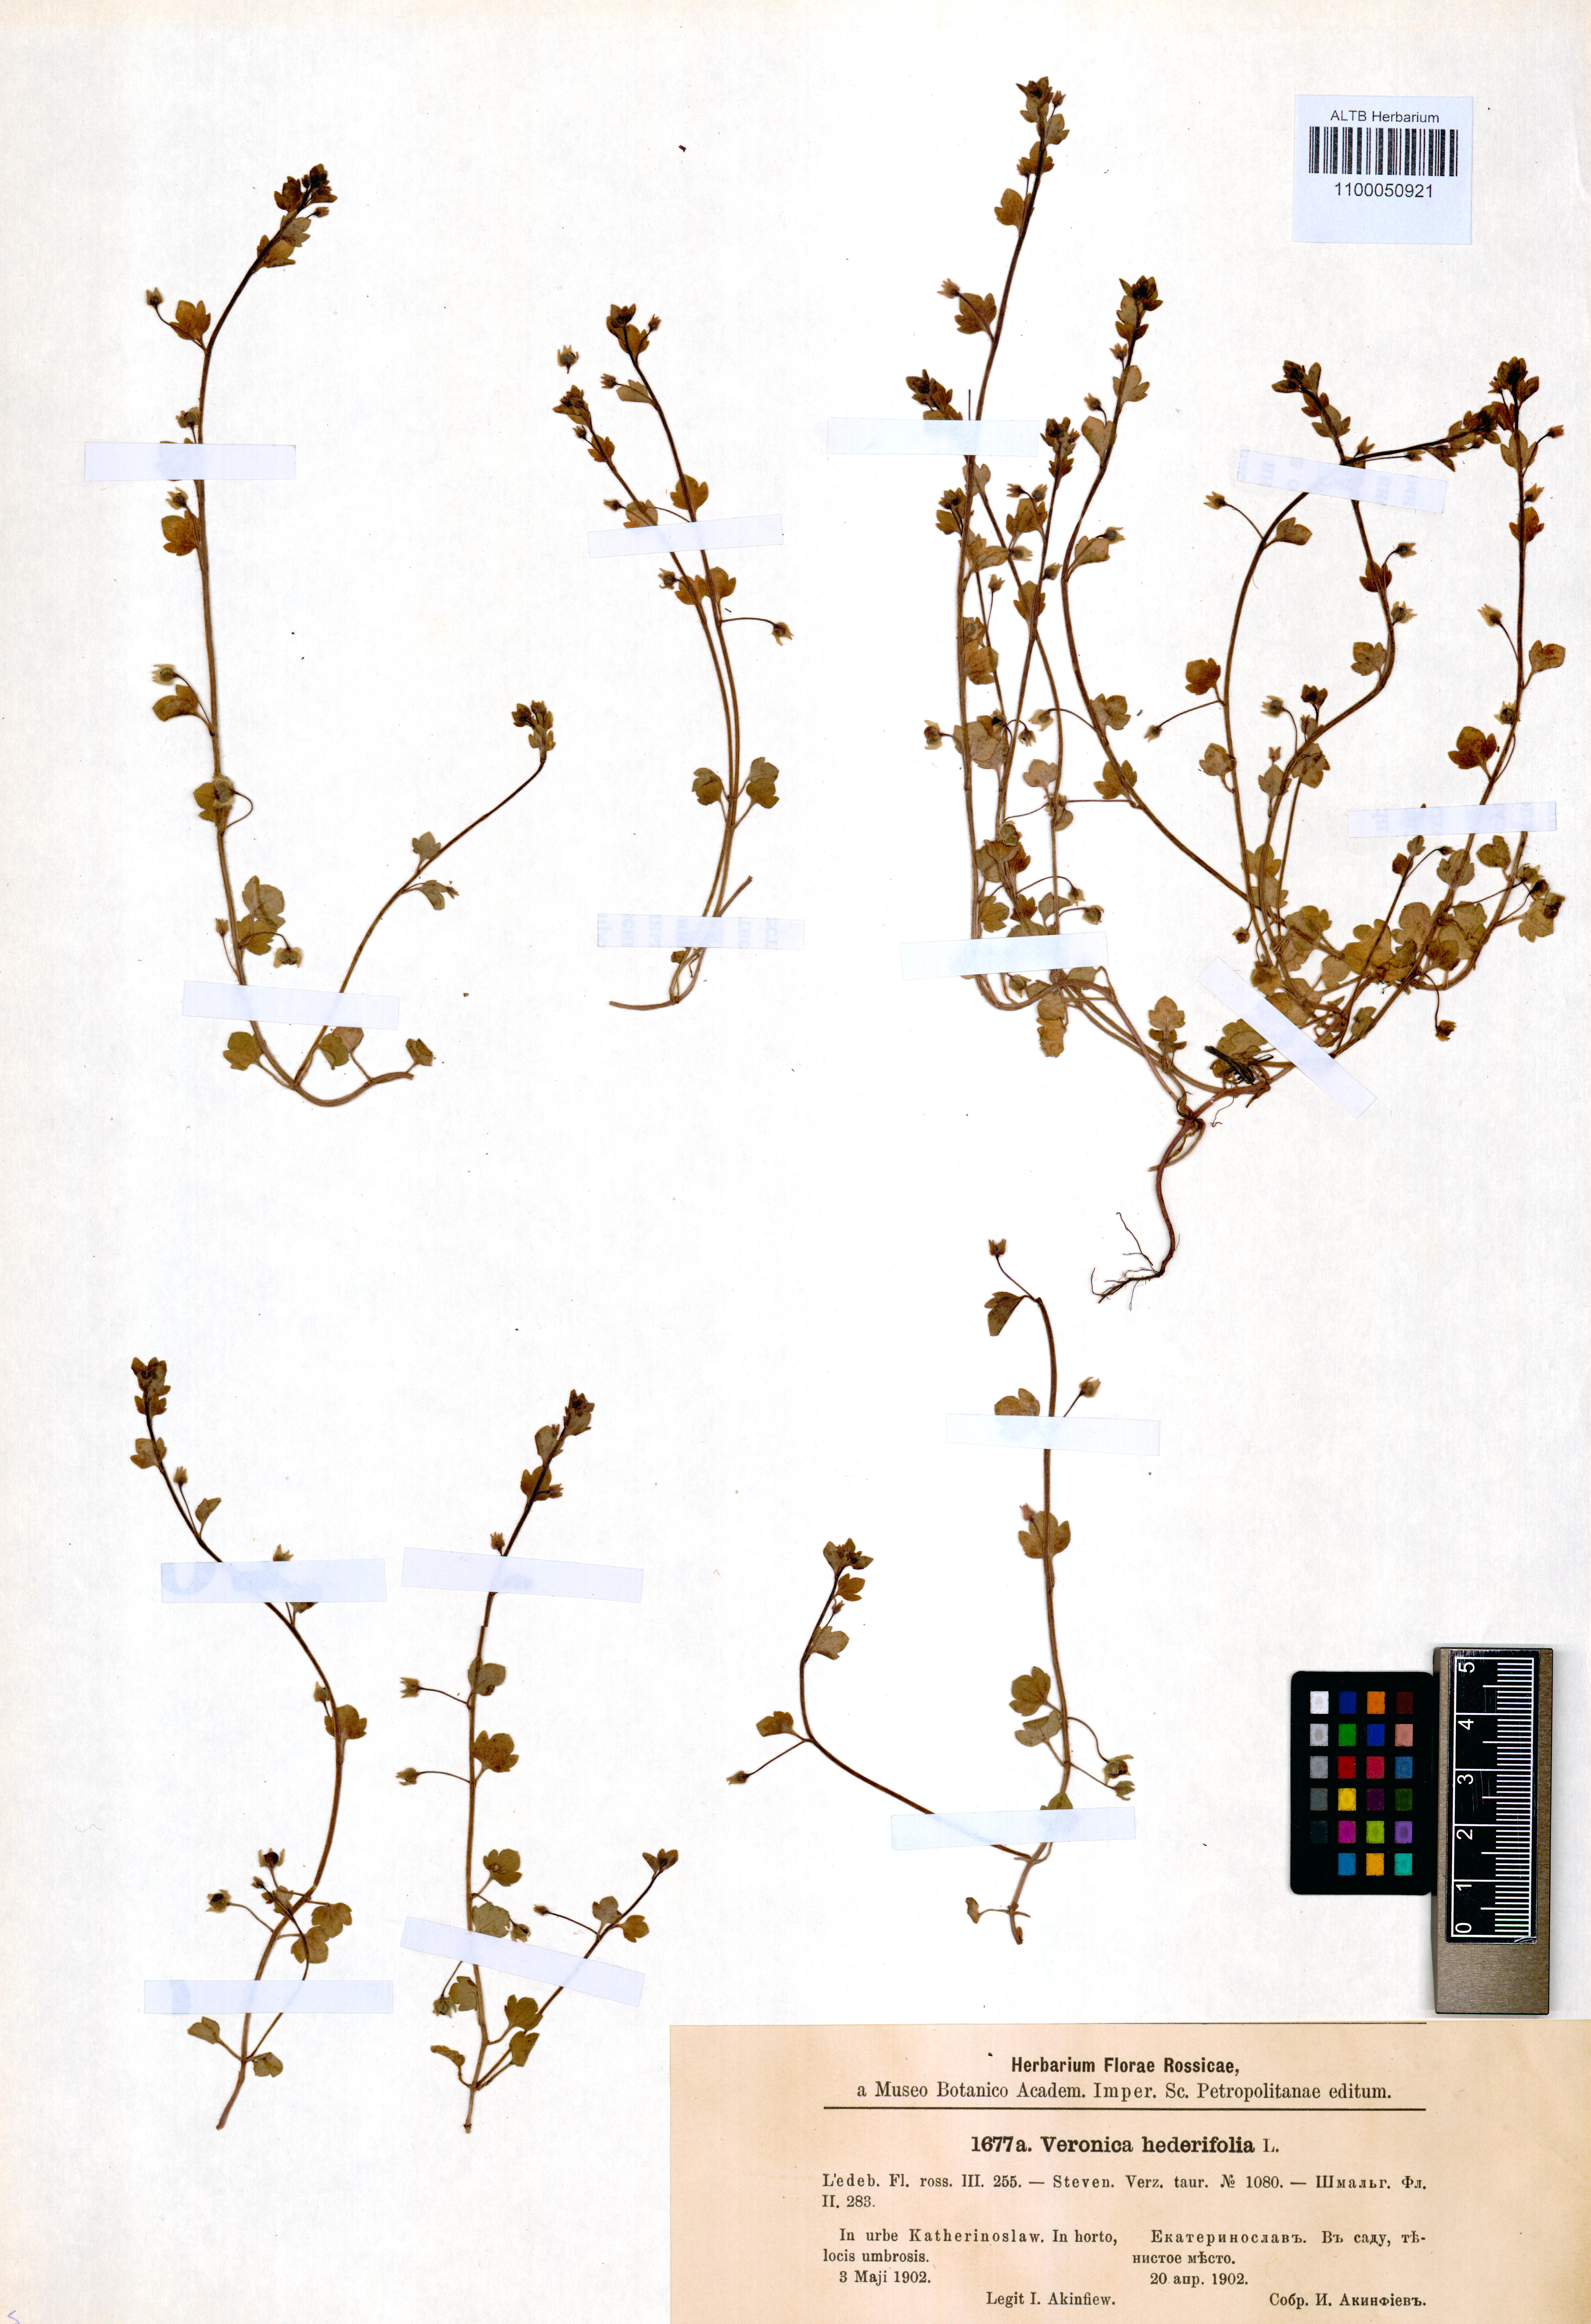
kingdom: Plantae
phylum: Tracheophyta
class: Magnoliopsida
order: Lamiales
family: Plantaginaceae
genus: Veronica
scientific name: Veronica hederifolia
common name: Ivy-leaved speedwell
